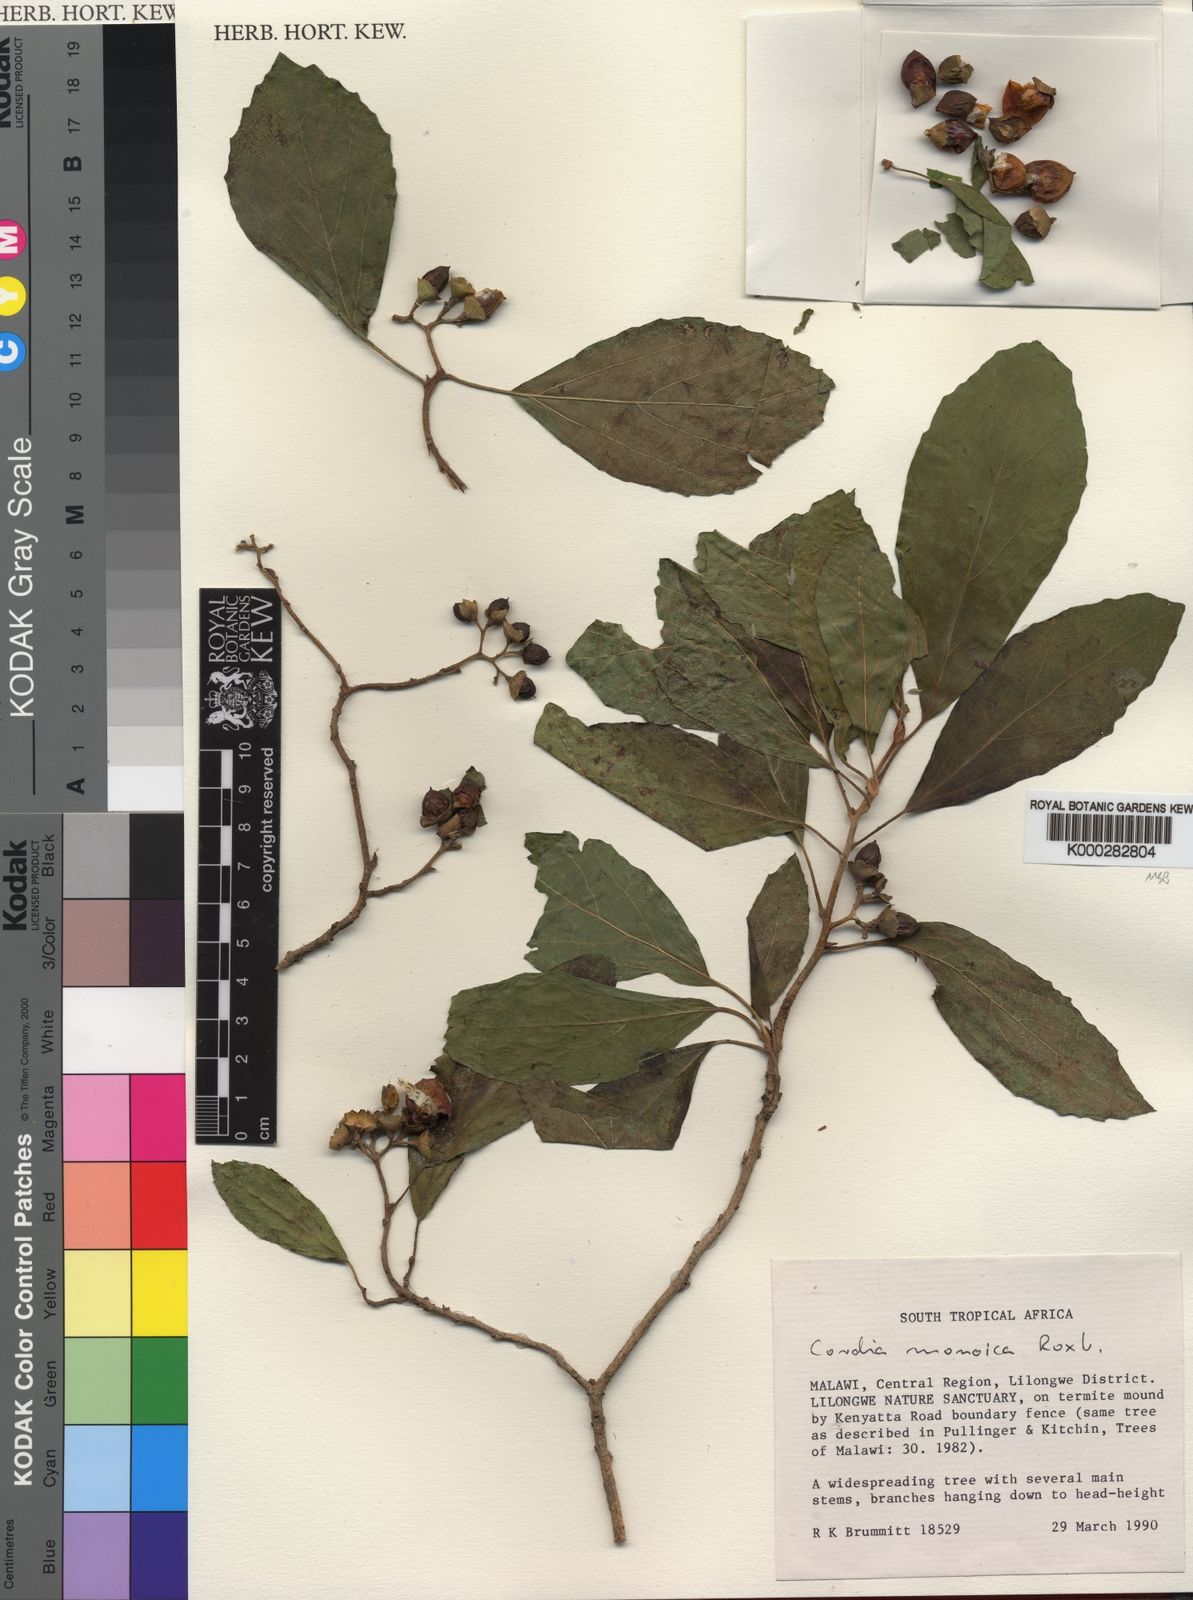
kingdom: Plantae
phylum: Tracheophyta
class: Magnoliopsida
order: Boraginales
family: Cordiaceae
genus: Cordia
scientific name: Cordia monoica
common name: Snot berry
